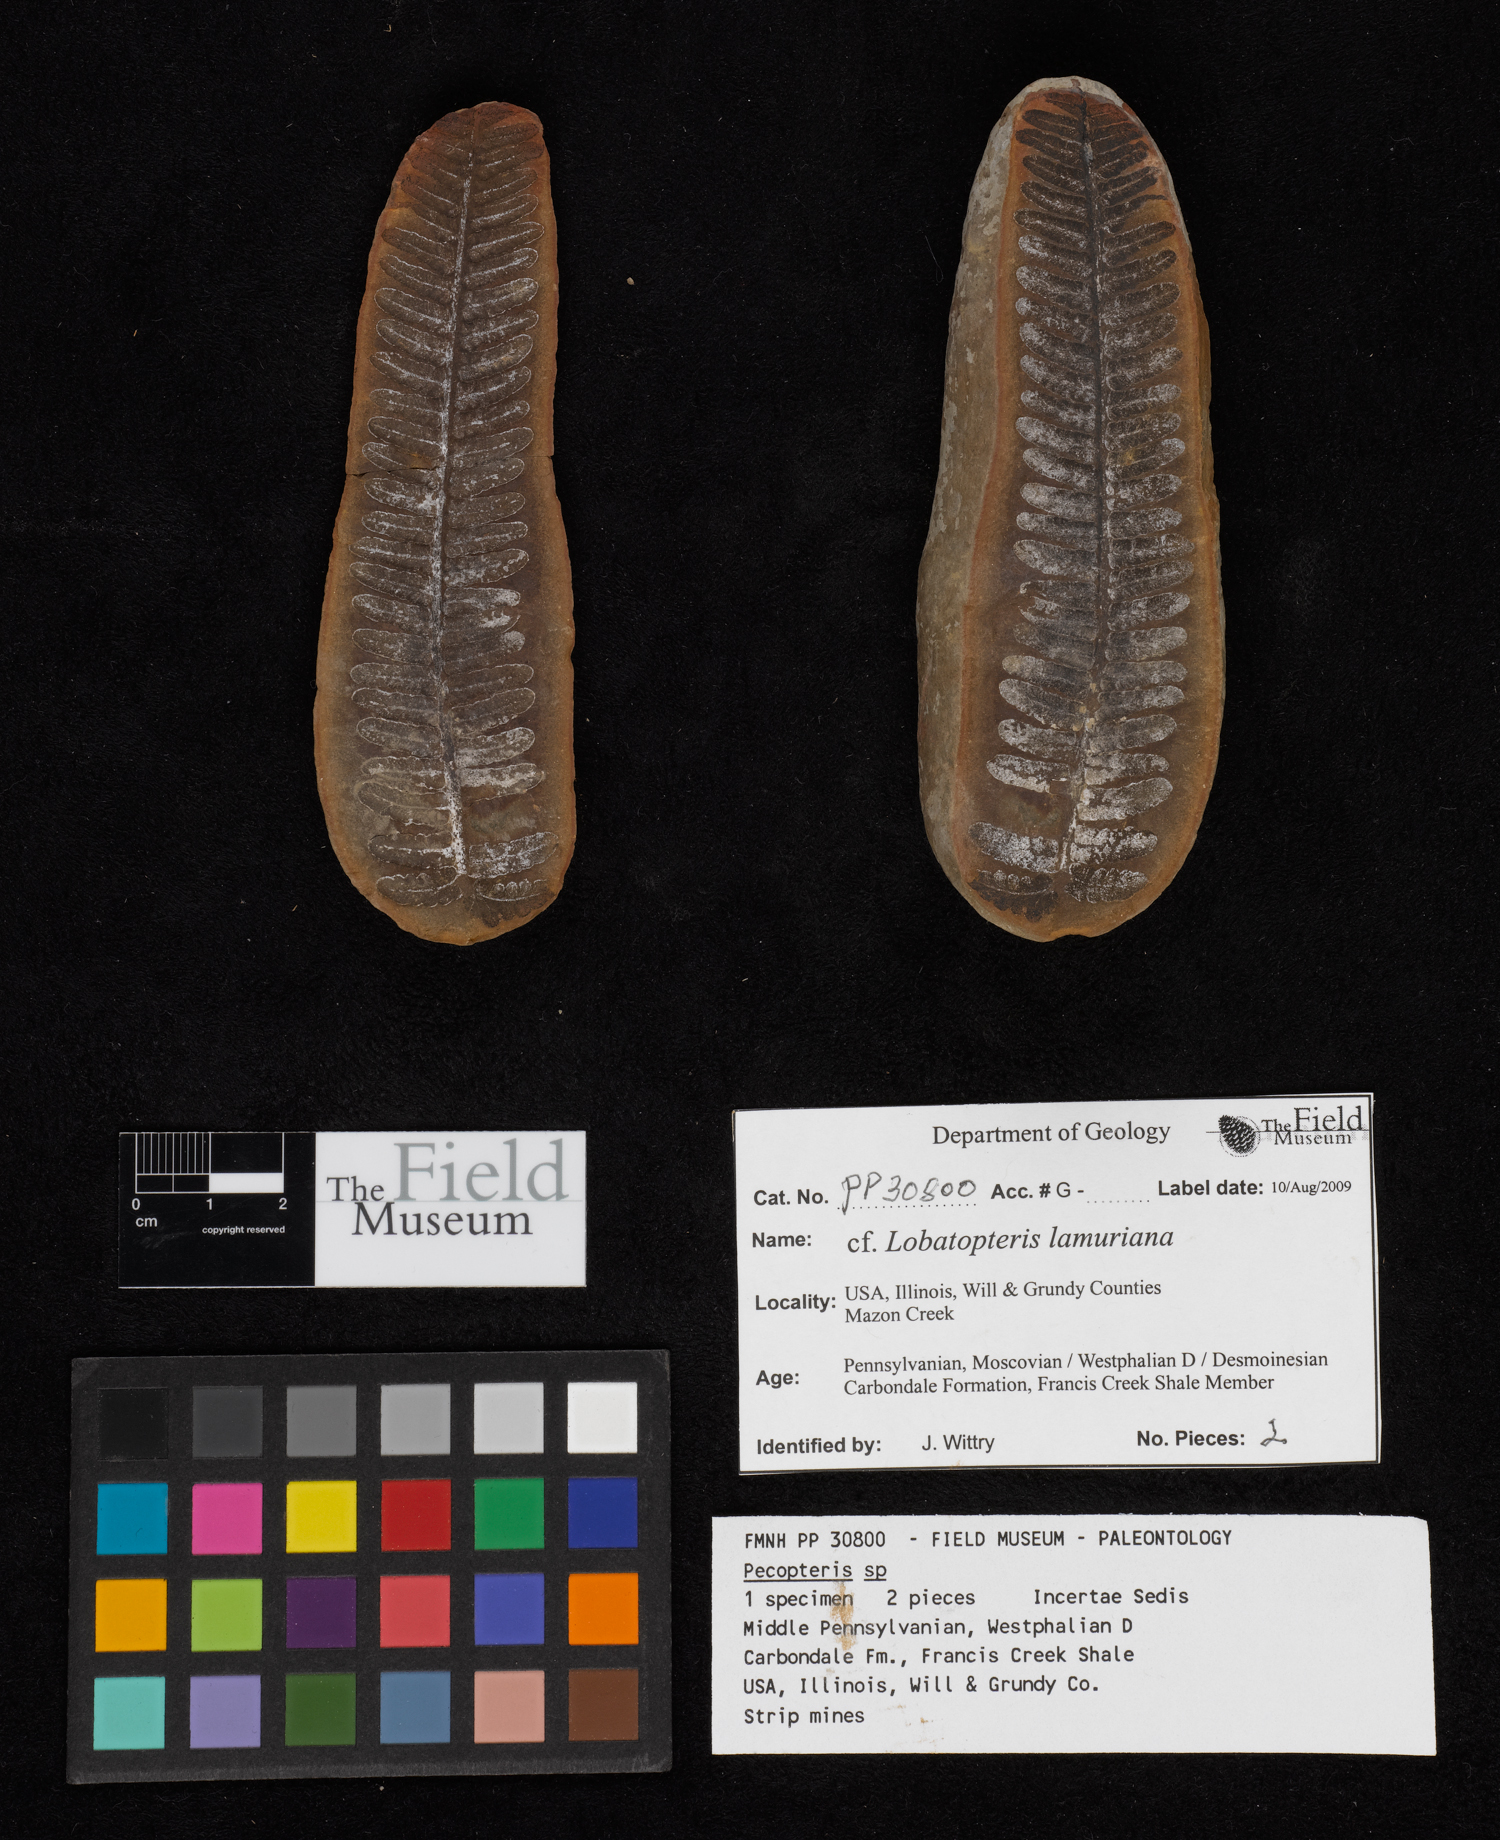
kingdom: Plantae
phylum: Tracheophyta
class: Polypodiopsida
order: Marattiales
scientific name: Marattiales
